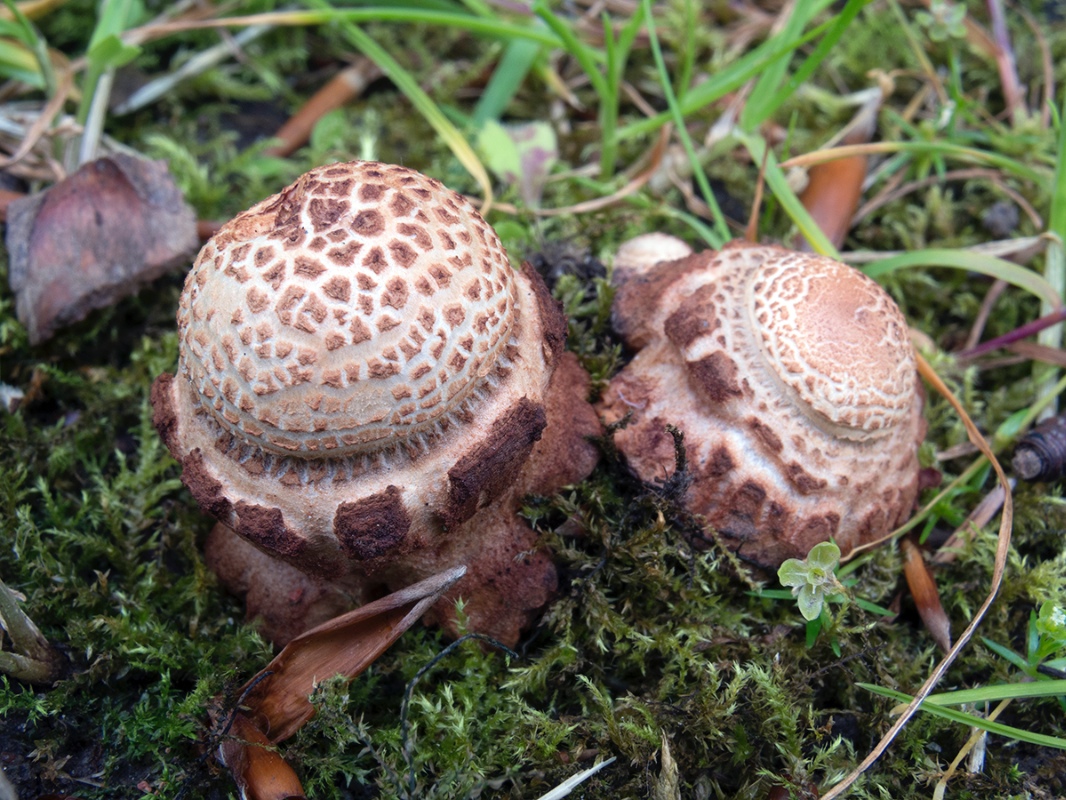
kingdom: Fungi
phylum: Basidiomycota
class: Agaricomycetes
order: Agaricales
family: Amanitaceae
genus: Amanita
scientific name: Amanita rubescens
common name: rødmende fluesvamp
